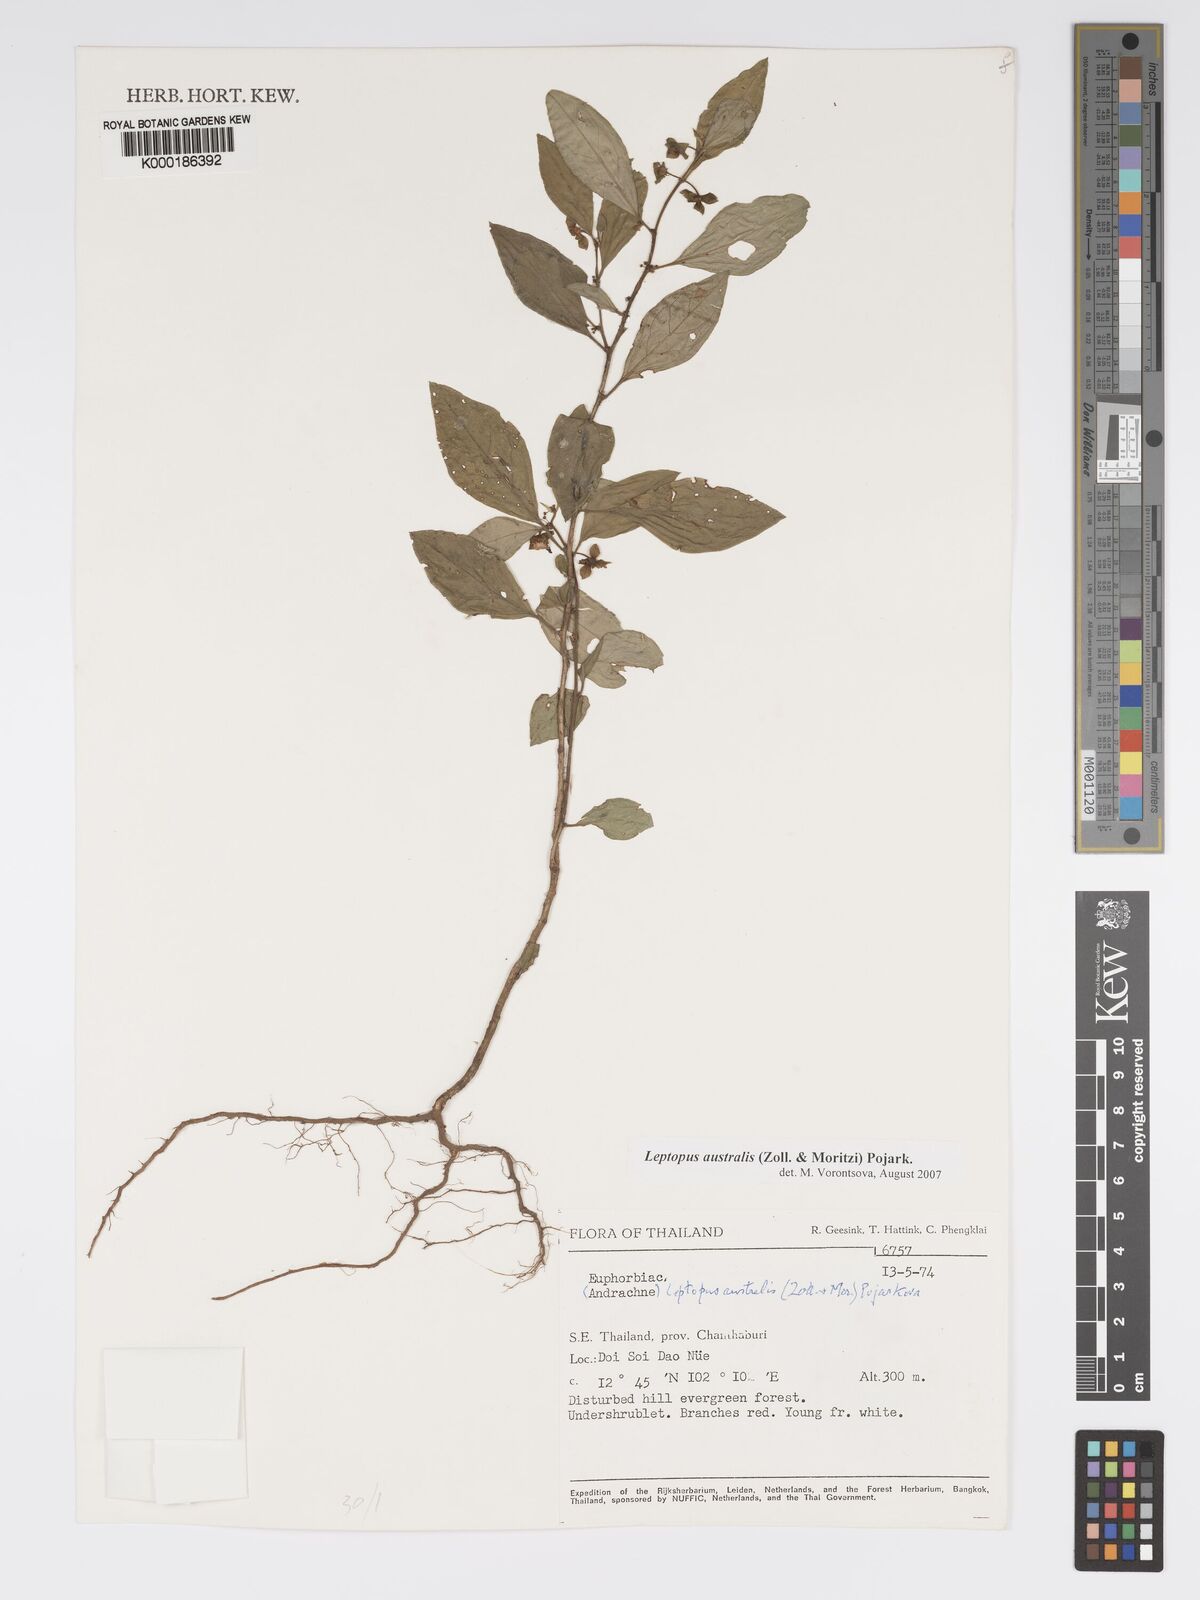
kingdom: Plantae
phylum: Tracheophyta
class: Magnoliopsida
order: Malpighiales
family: Phyllanthaceae
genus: Andrachne
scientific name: Andrachne
